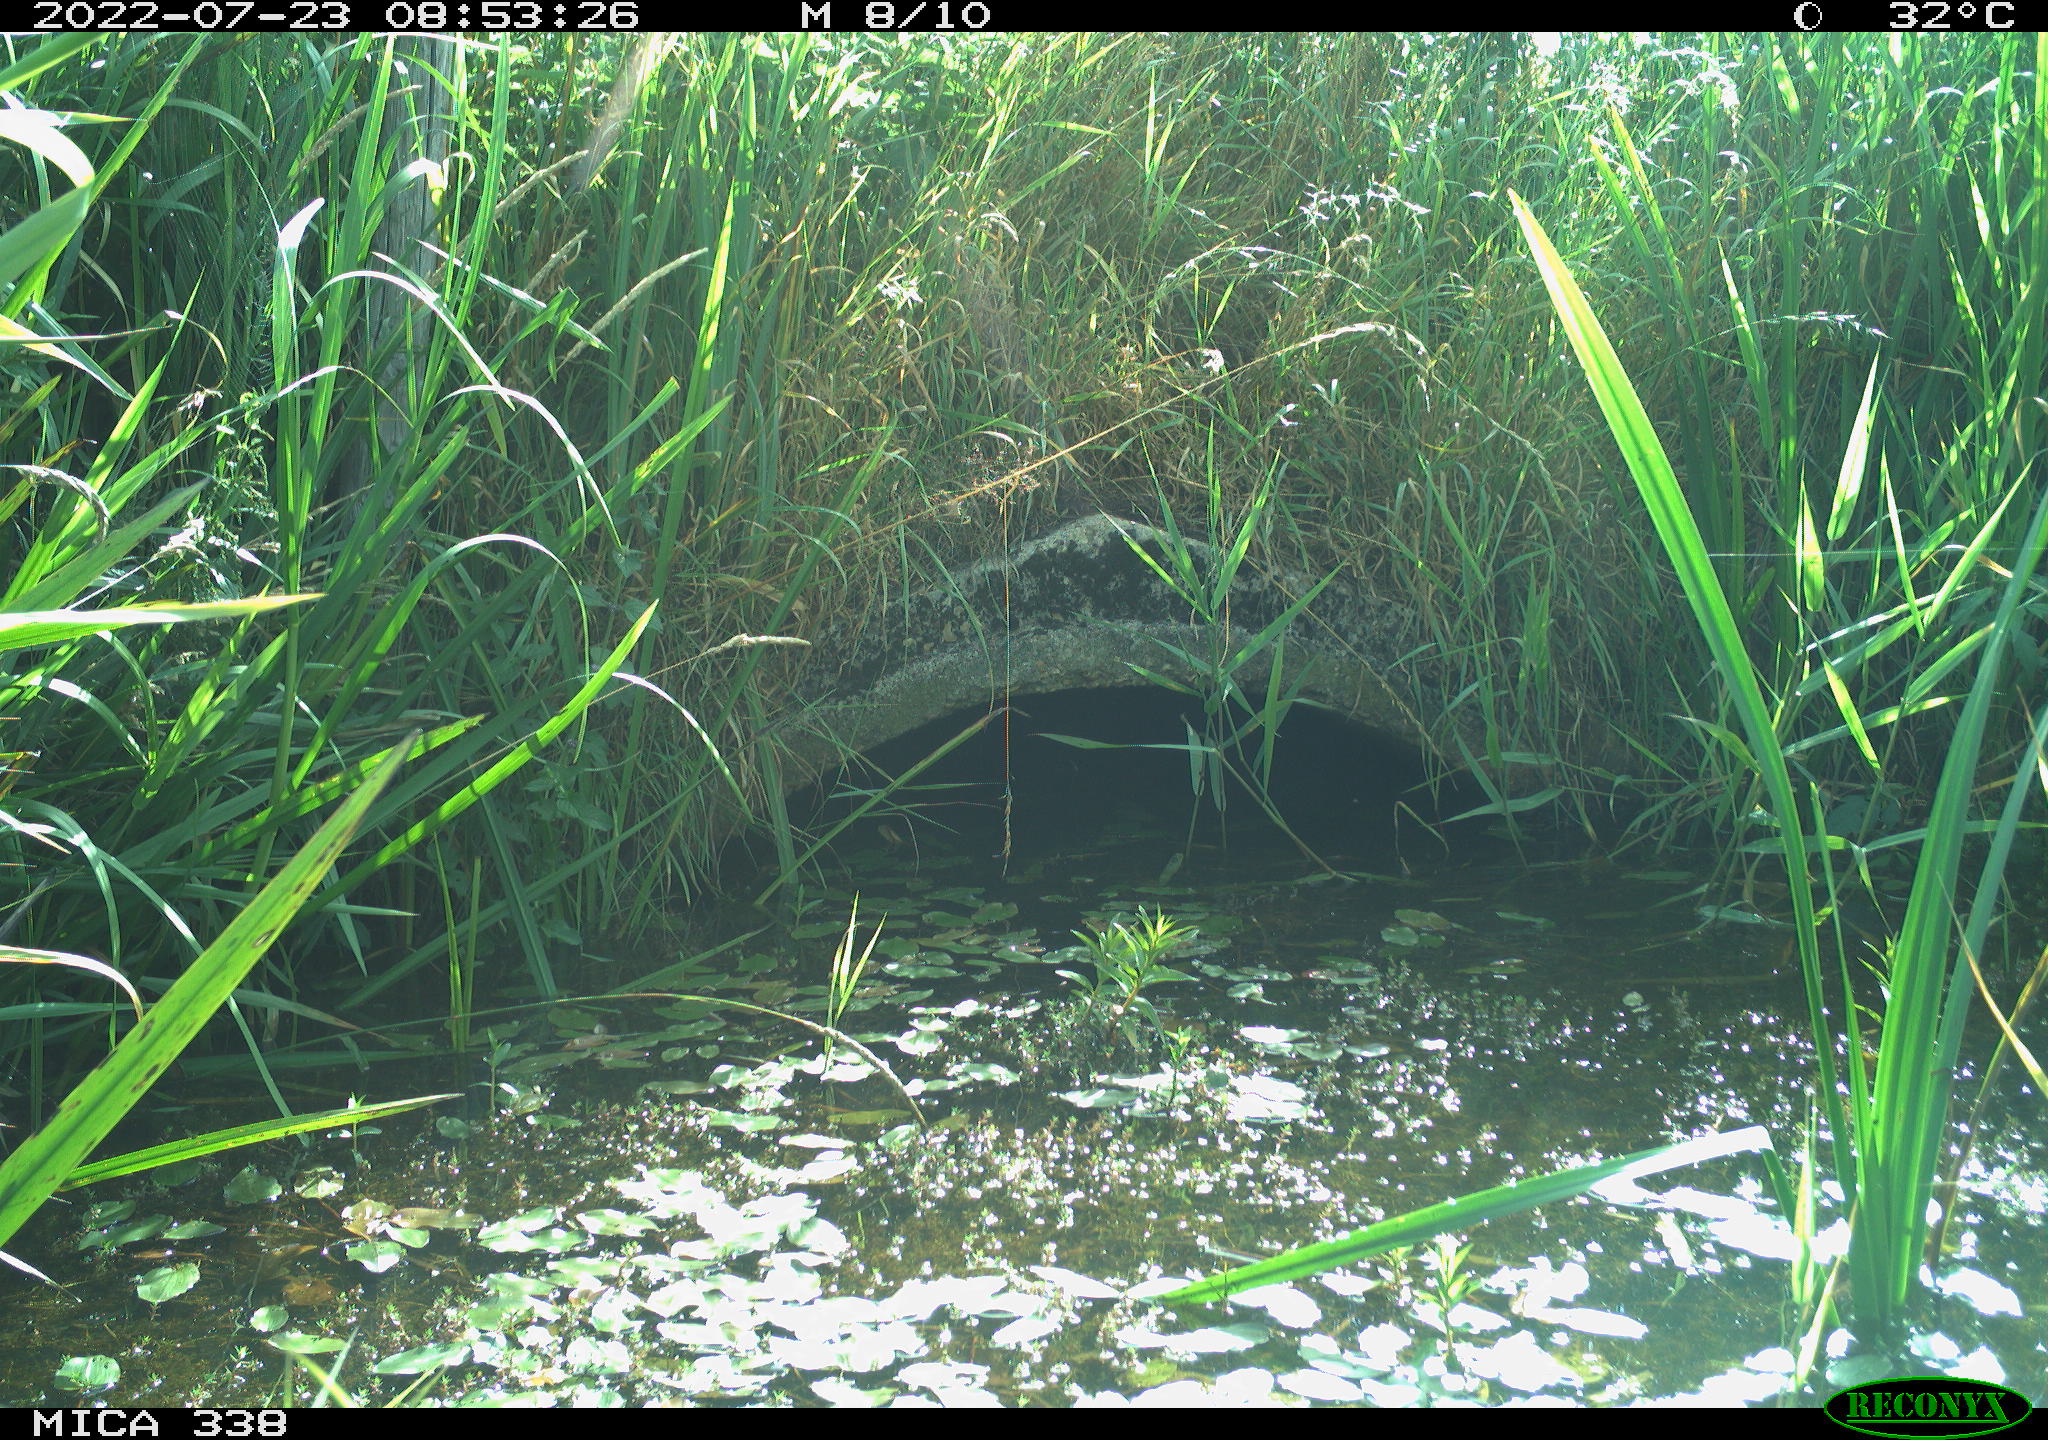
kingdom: Animalia
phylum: Chordata
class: Aves
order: Anseriformes
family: Anatidae
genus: Anas
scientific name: Anas platyrhynchos
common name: Mallard
